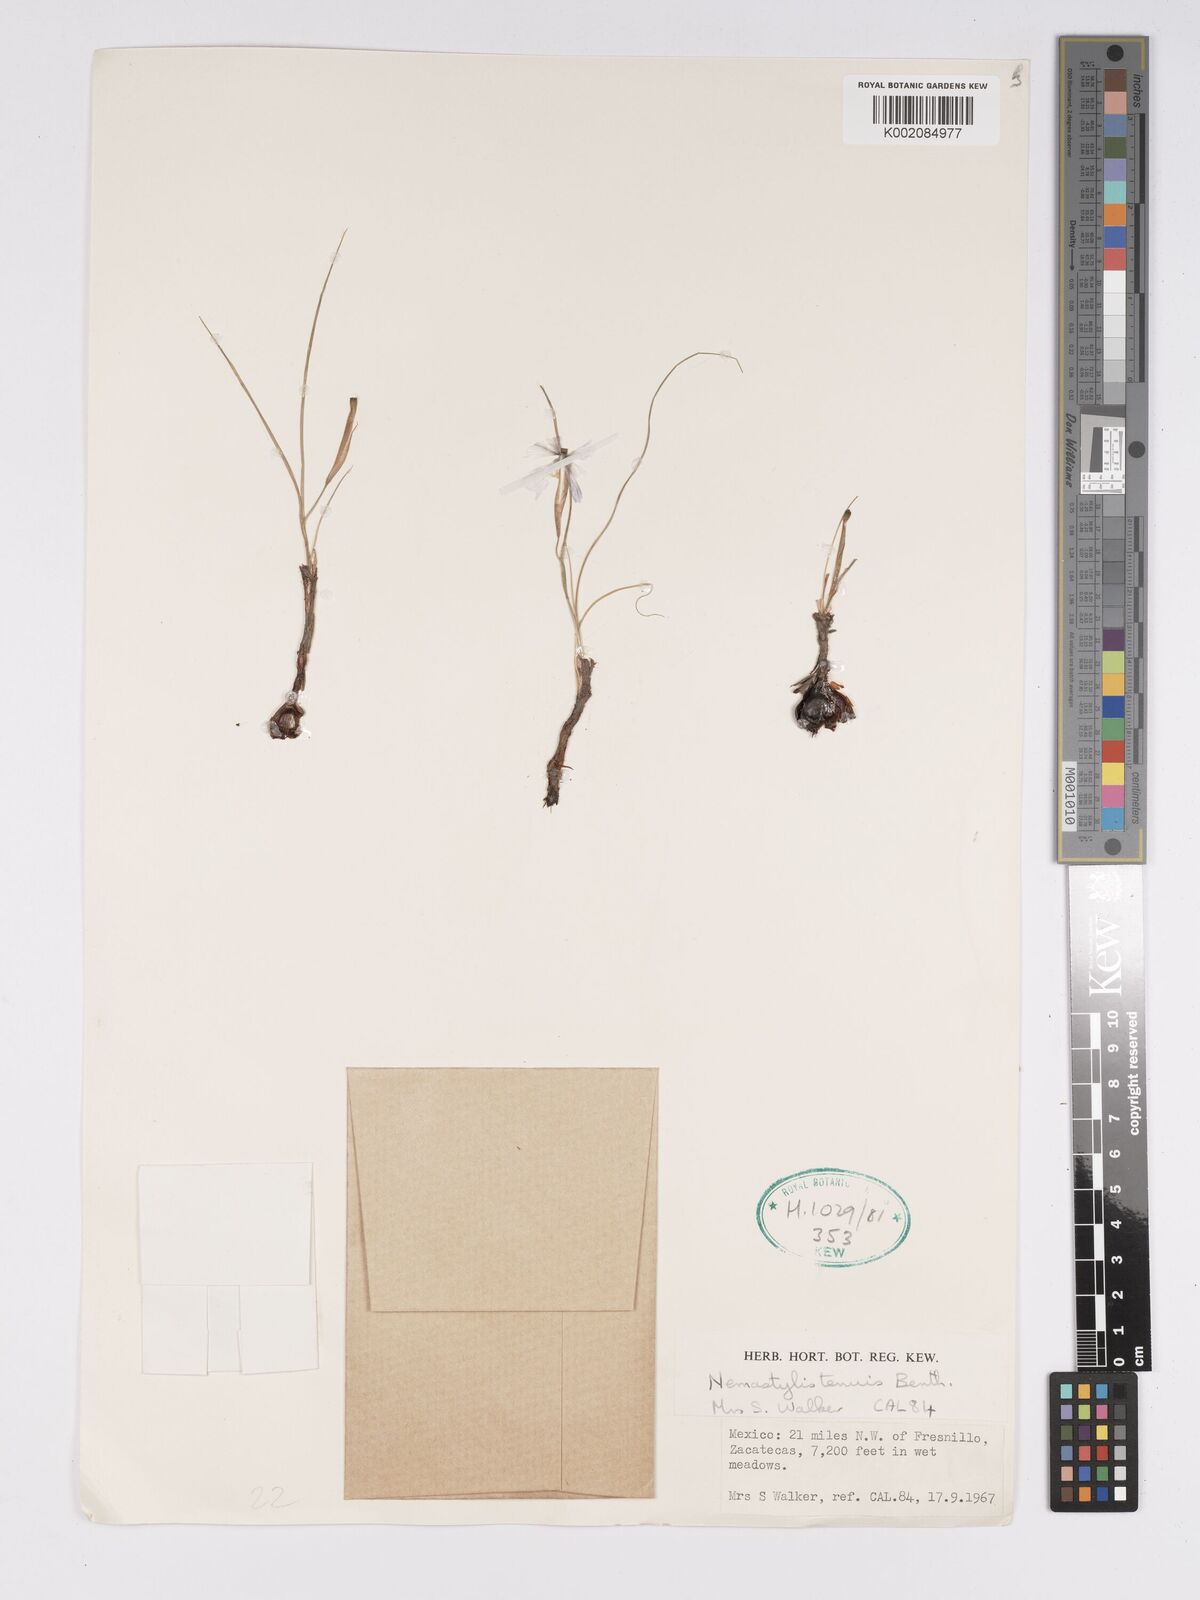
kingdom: Plantae
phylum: Tracheophyta
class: Liliopsida
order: Asparagales
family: Iridaceae
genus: Nemastylis
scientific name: Nemastylis tenuis
